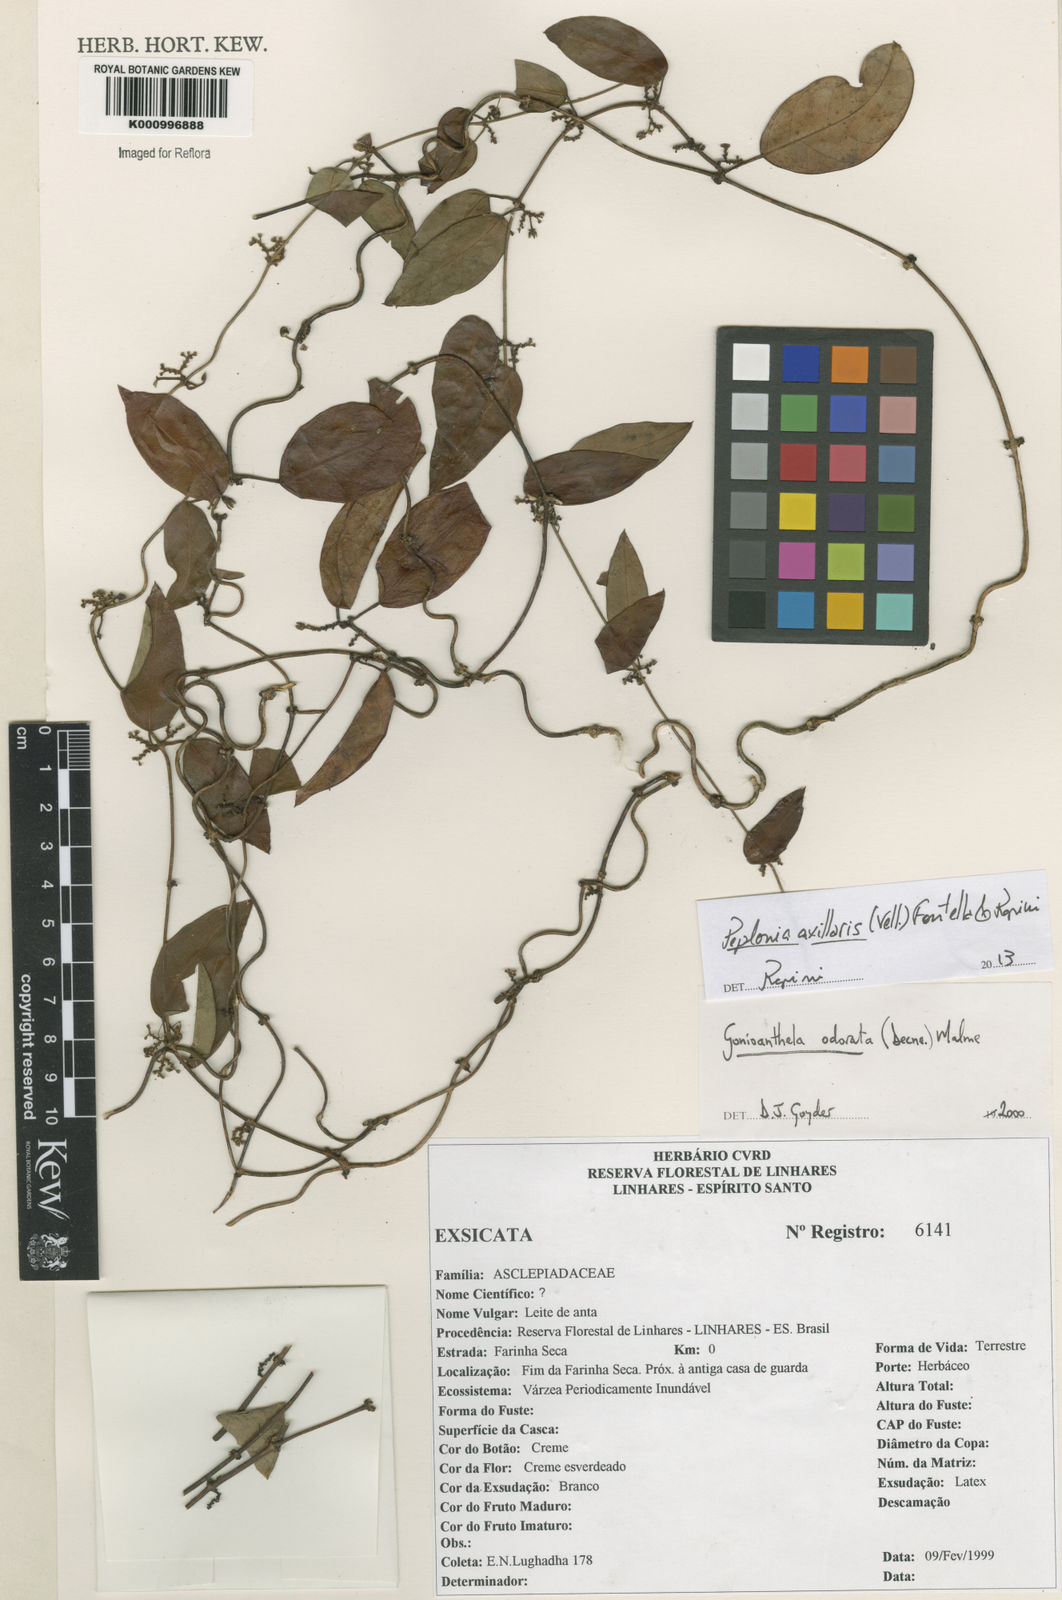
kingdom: Plantae
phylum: Tracheophyta
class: Magnoliopsida
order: Gentianales
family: Apocynaceae
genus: Peplonia
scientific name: Peplonia axillaris
